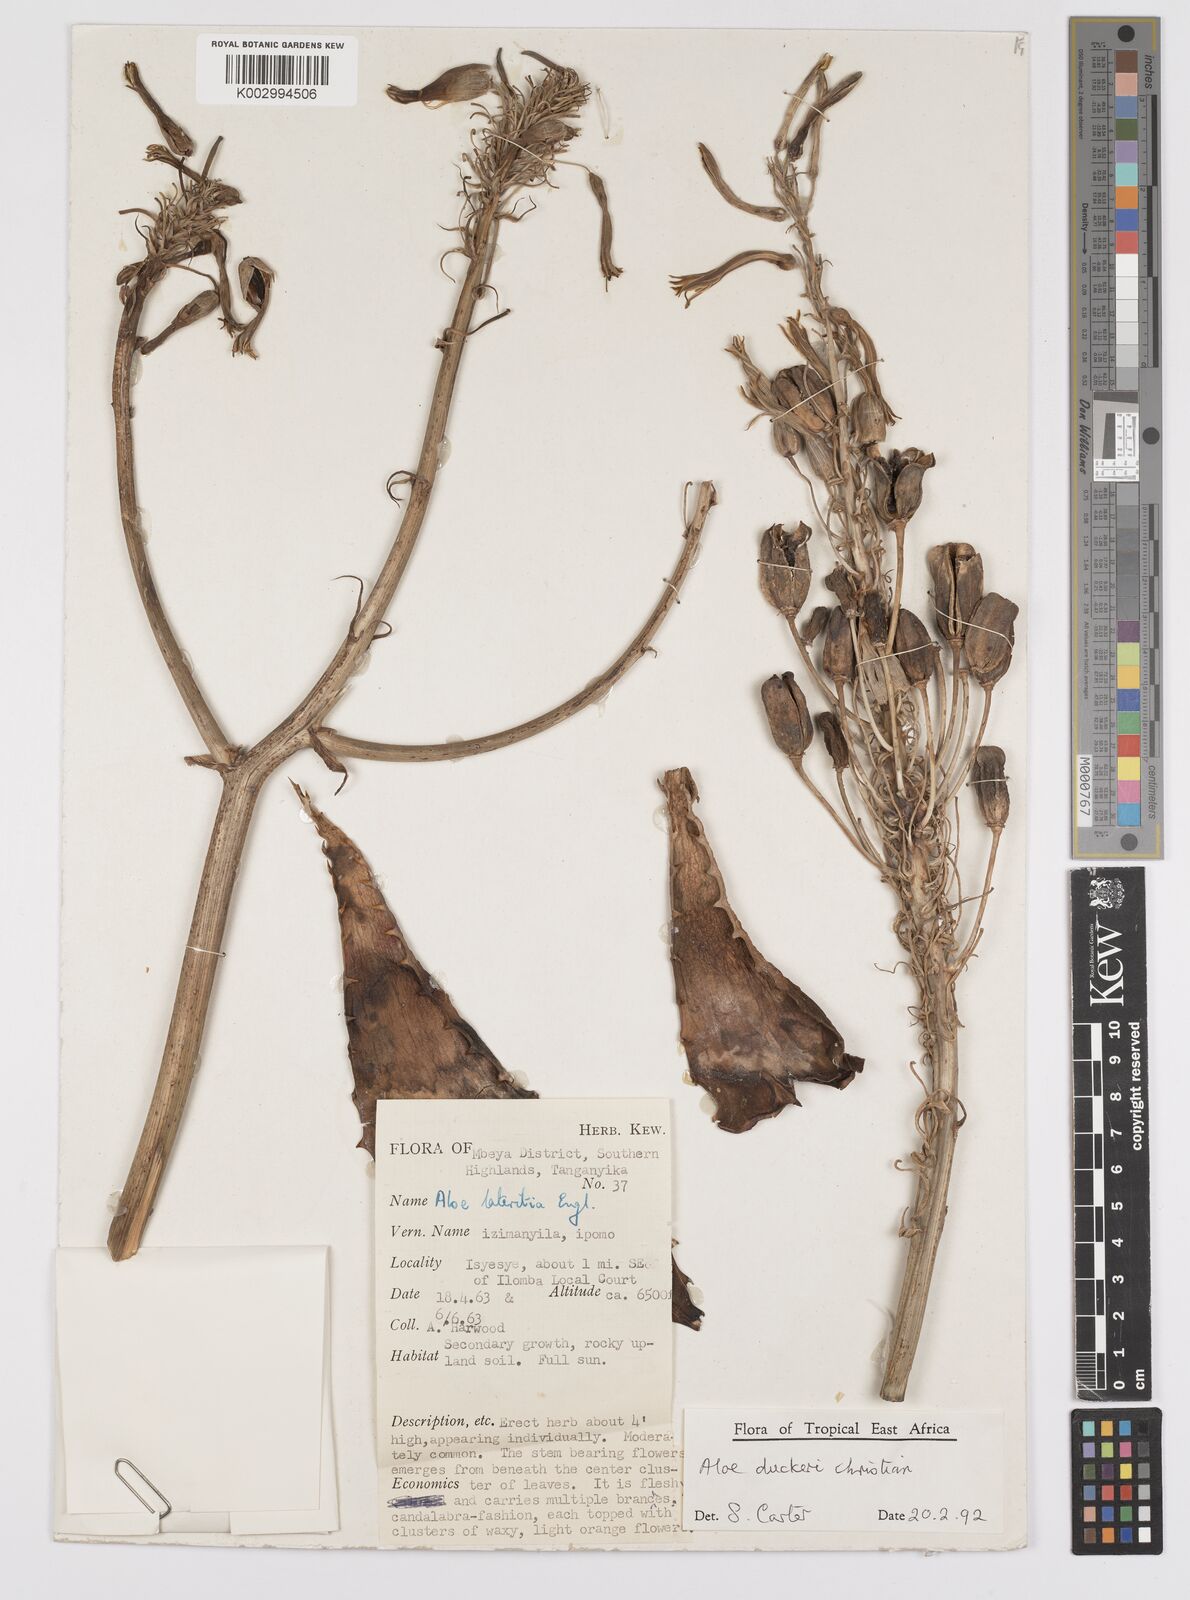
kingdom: Plantae
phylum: Tracheophyta
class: Liliopsida
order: Asparagales
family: Asphodelaceae
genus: Aloe
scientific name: Aloe duckeri
